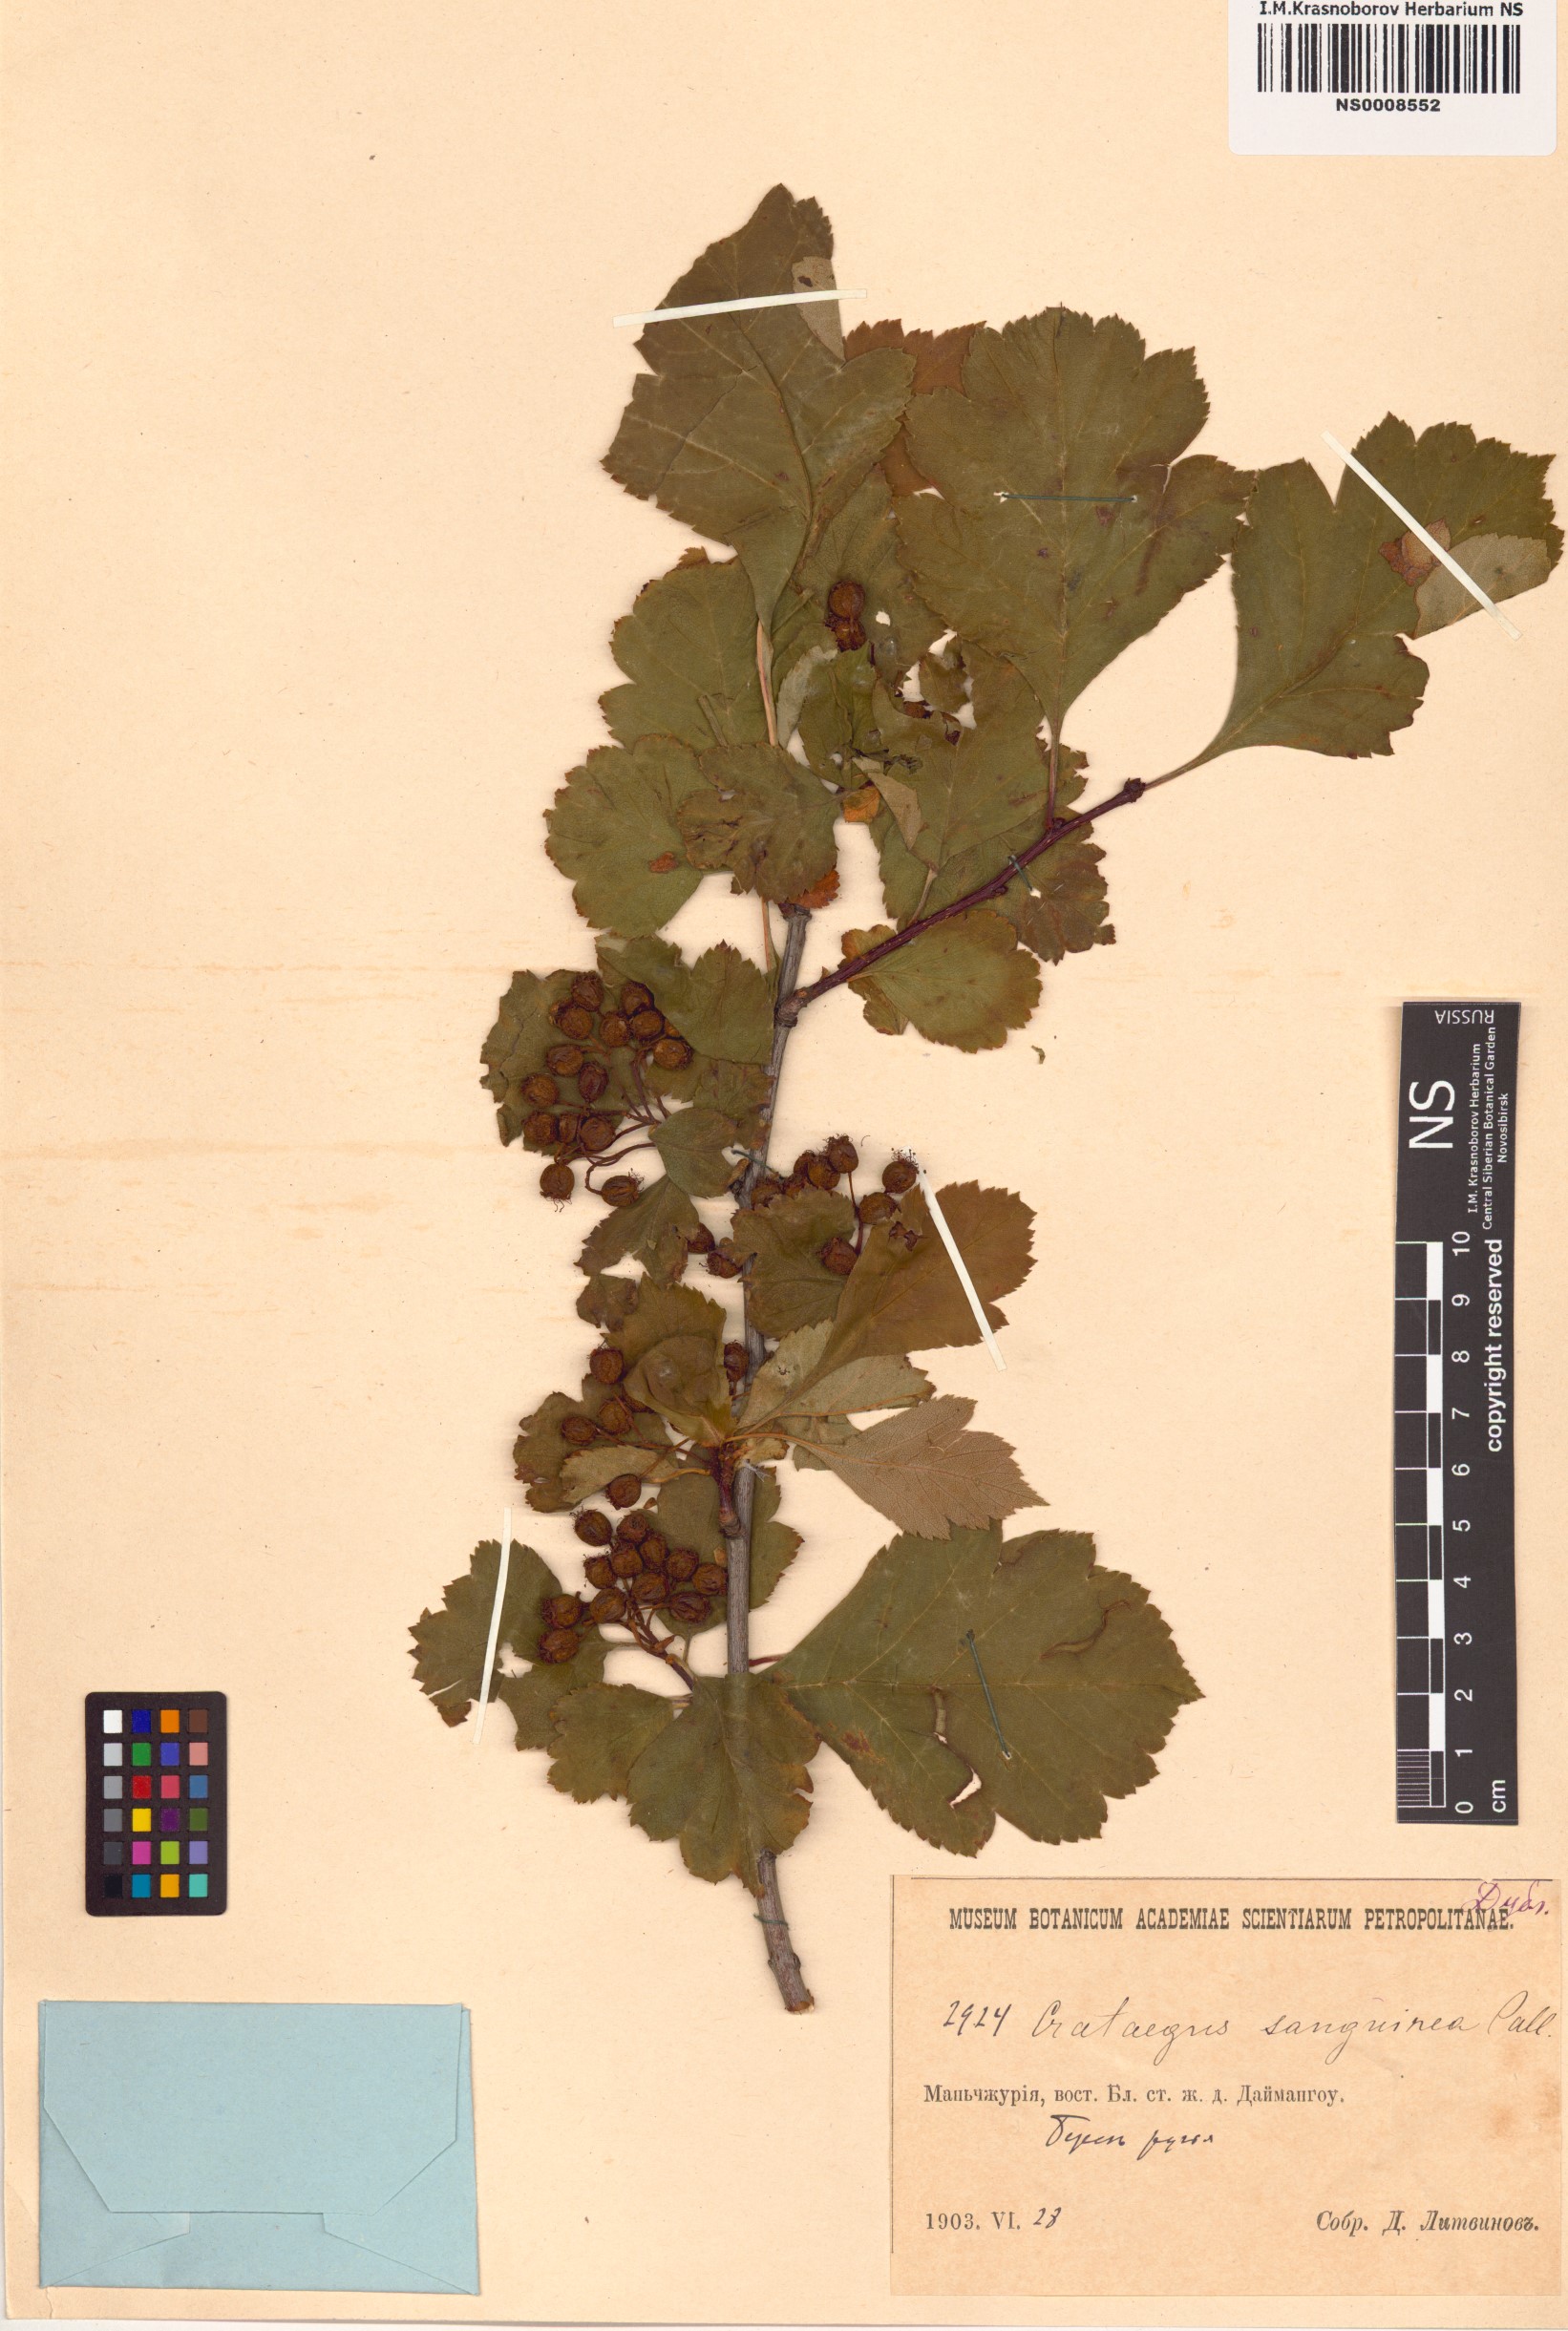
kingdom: Plantae
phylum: Tracheophyta
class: Magnoliopsida
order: Rosales
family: Rosaceae
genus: Crataegus
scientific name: Crataegus sanguinea
